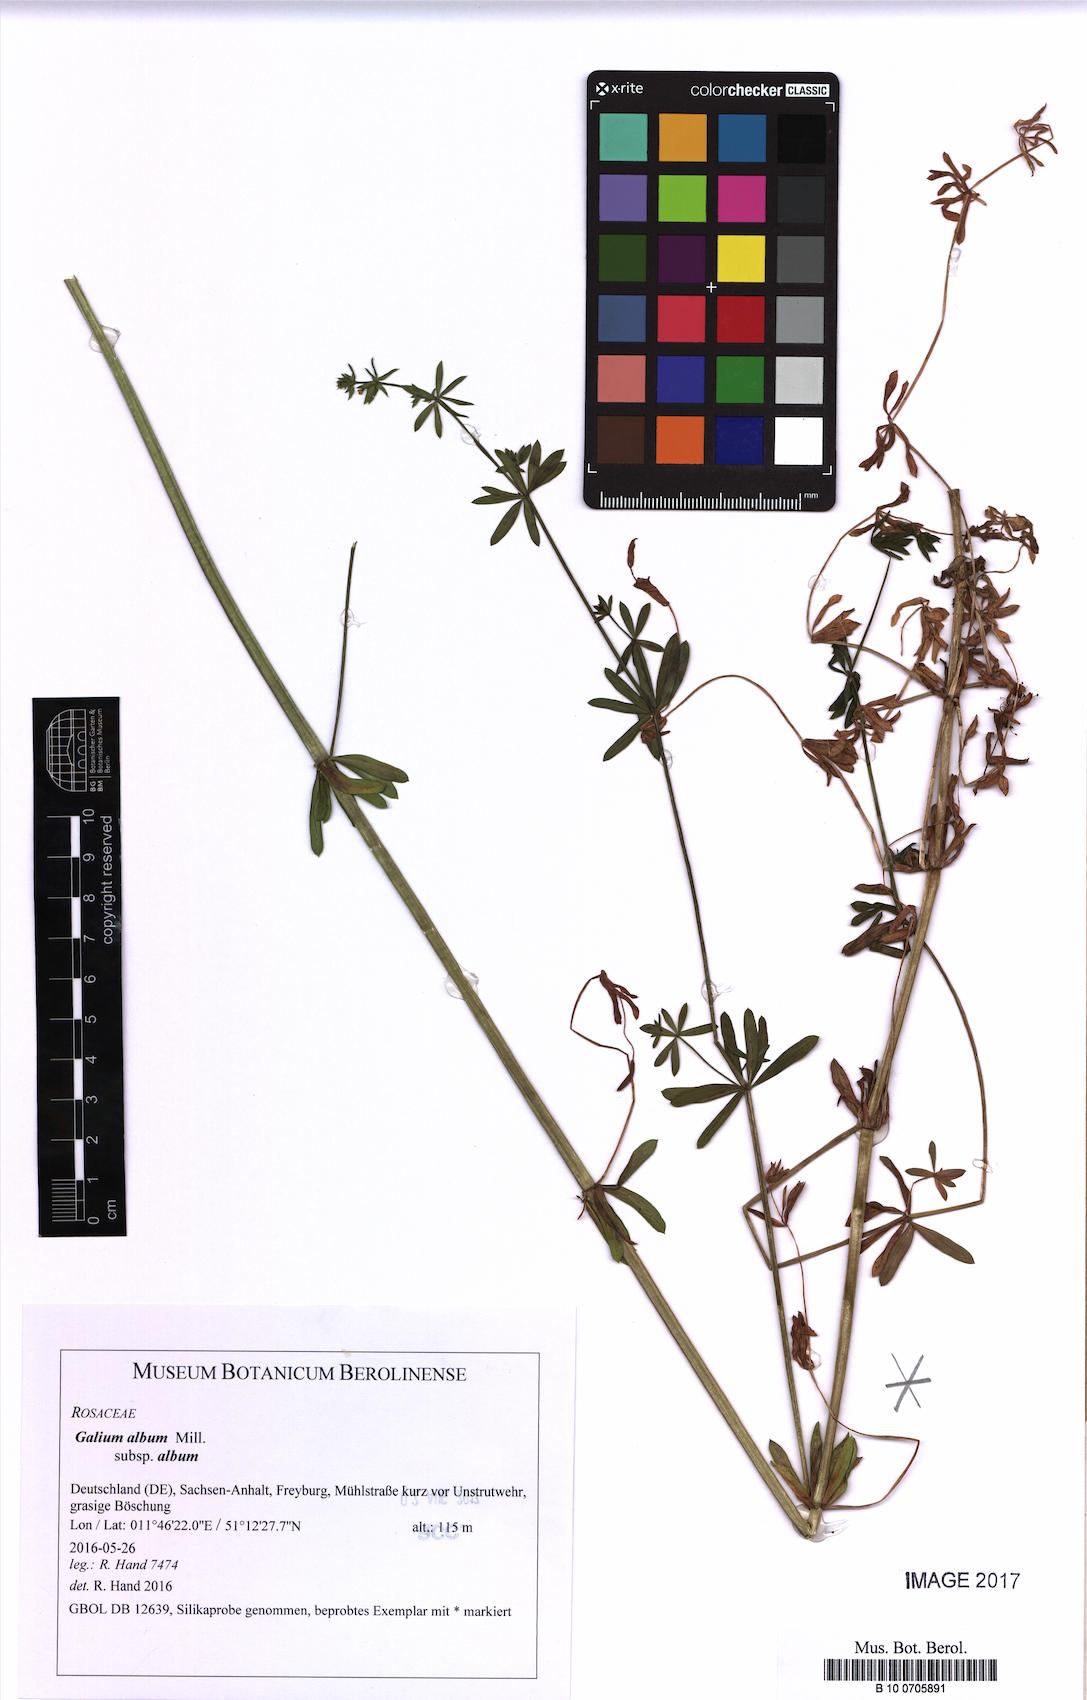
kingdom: Plantae
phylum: Tracheophyta
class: Magnoliopsida
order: Gentianales
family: Rubiaceae
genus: Galium
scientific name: Galium album
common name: White bedstraw
